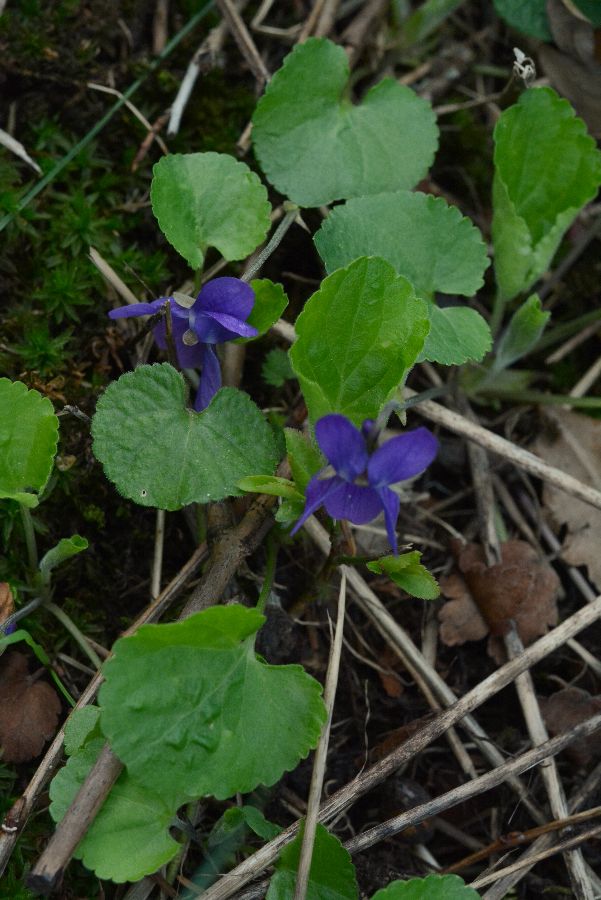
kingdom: Plantae
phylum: Tracheophyta
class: Magnoliopsida
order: Malpighiales
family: Violaceae
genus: Viola
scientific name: Viola odorata
